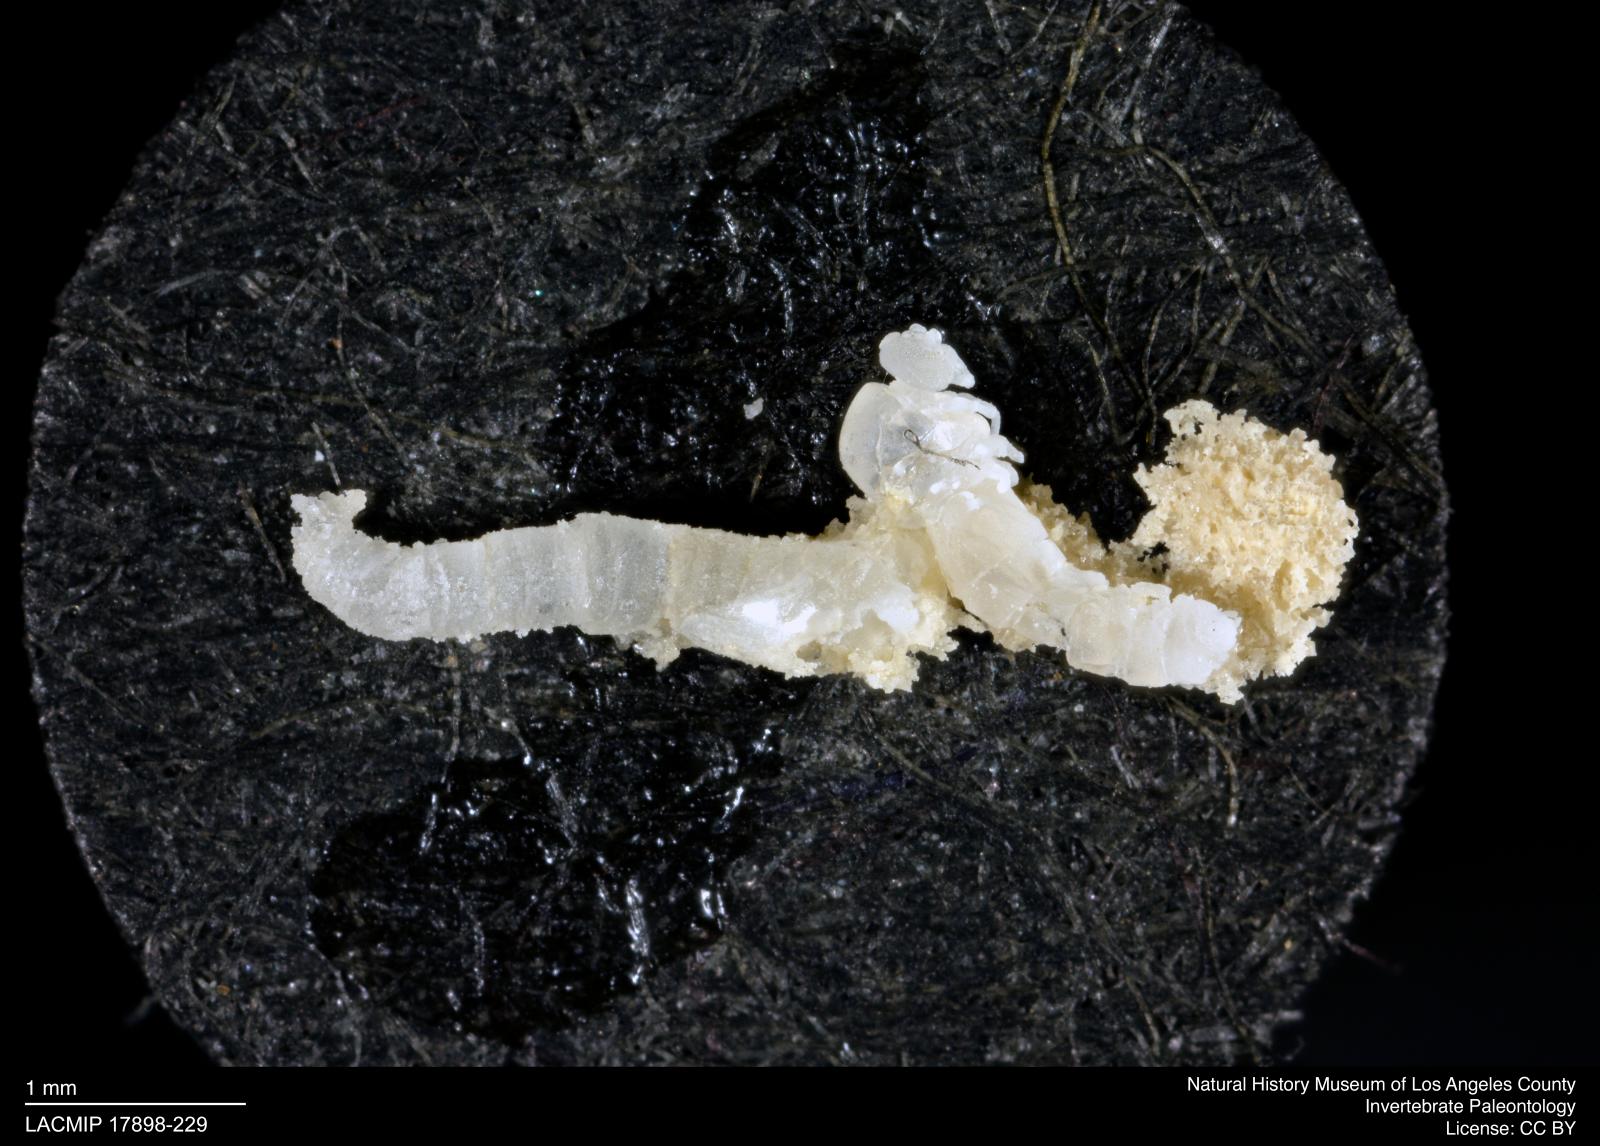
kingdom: Animalia
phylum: Arthropoda
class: Insecta
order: Diptera
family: Ceratopogonidae
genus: Dasyhelea
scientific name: Dasyhelea
